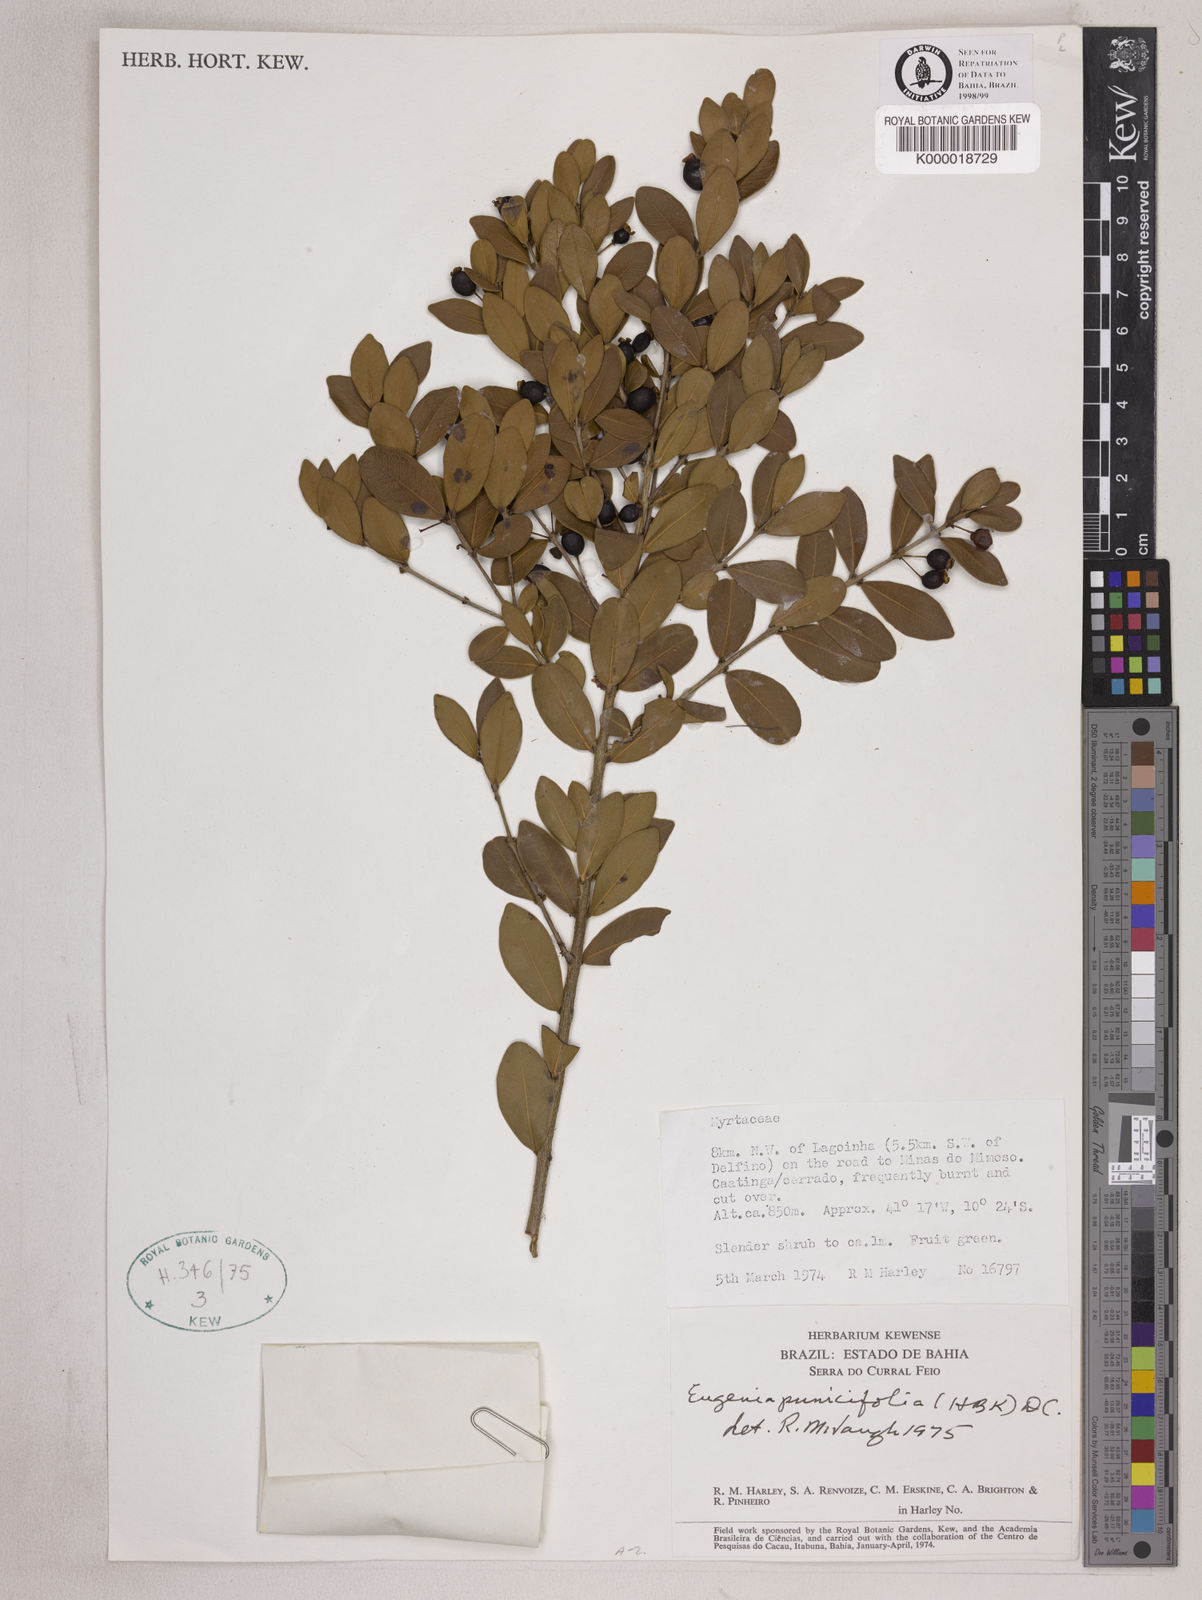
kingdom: Plantae
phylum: Tracheophyta
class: Magnoliopsida
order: Myrtales
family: Myrtaceae
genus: Eugenia
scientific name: Eugenia punicifolia
